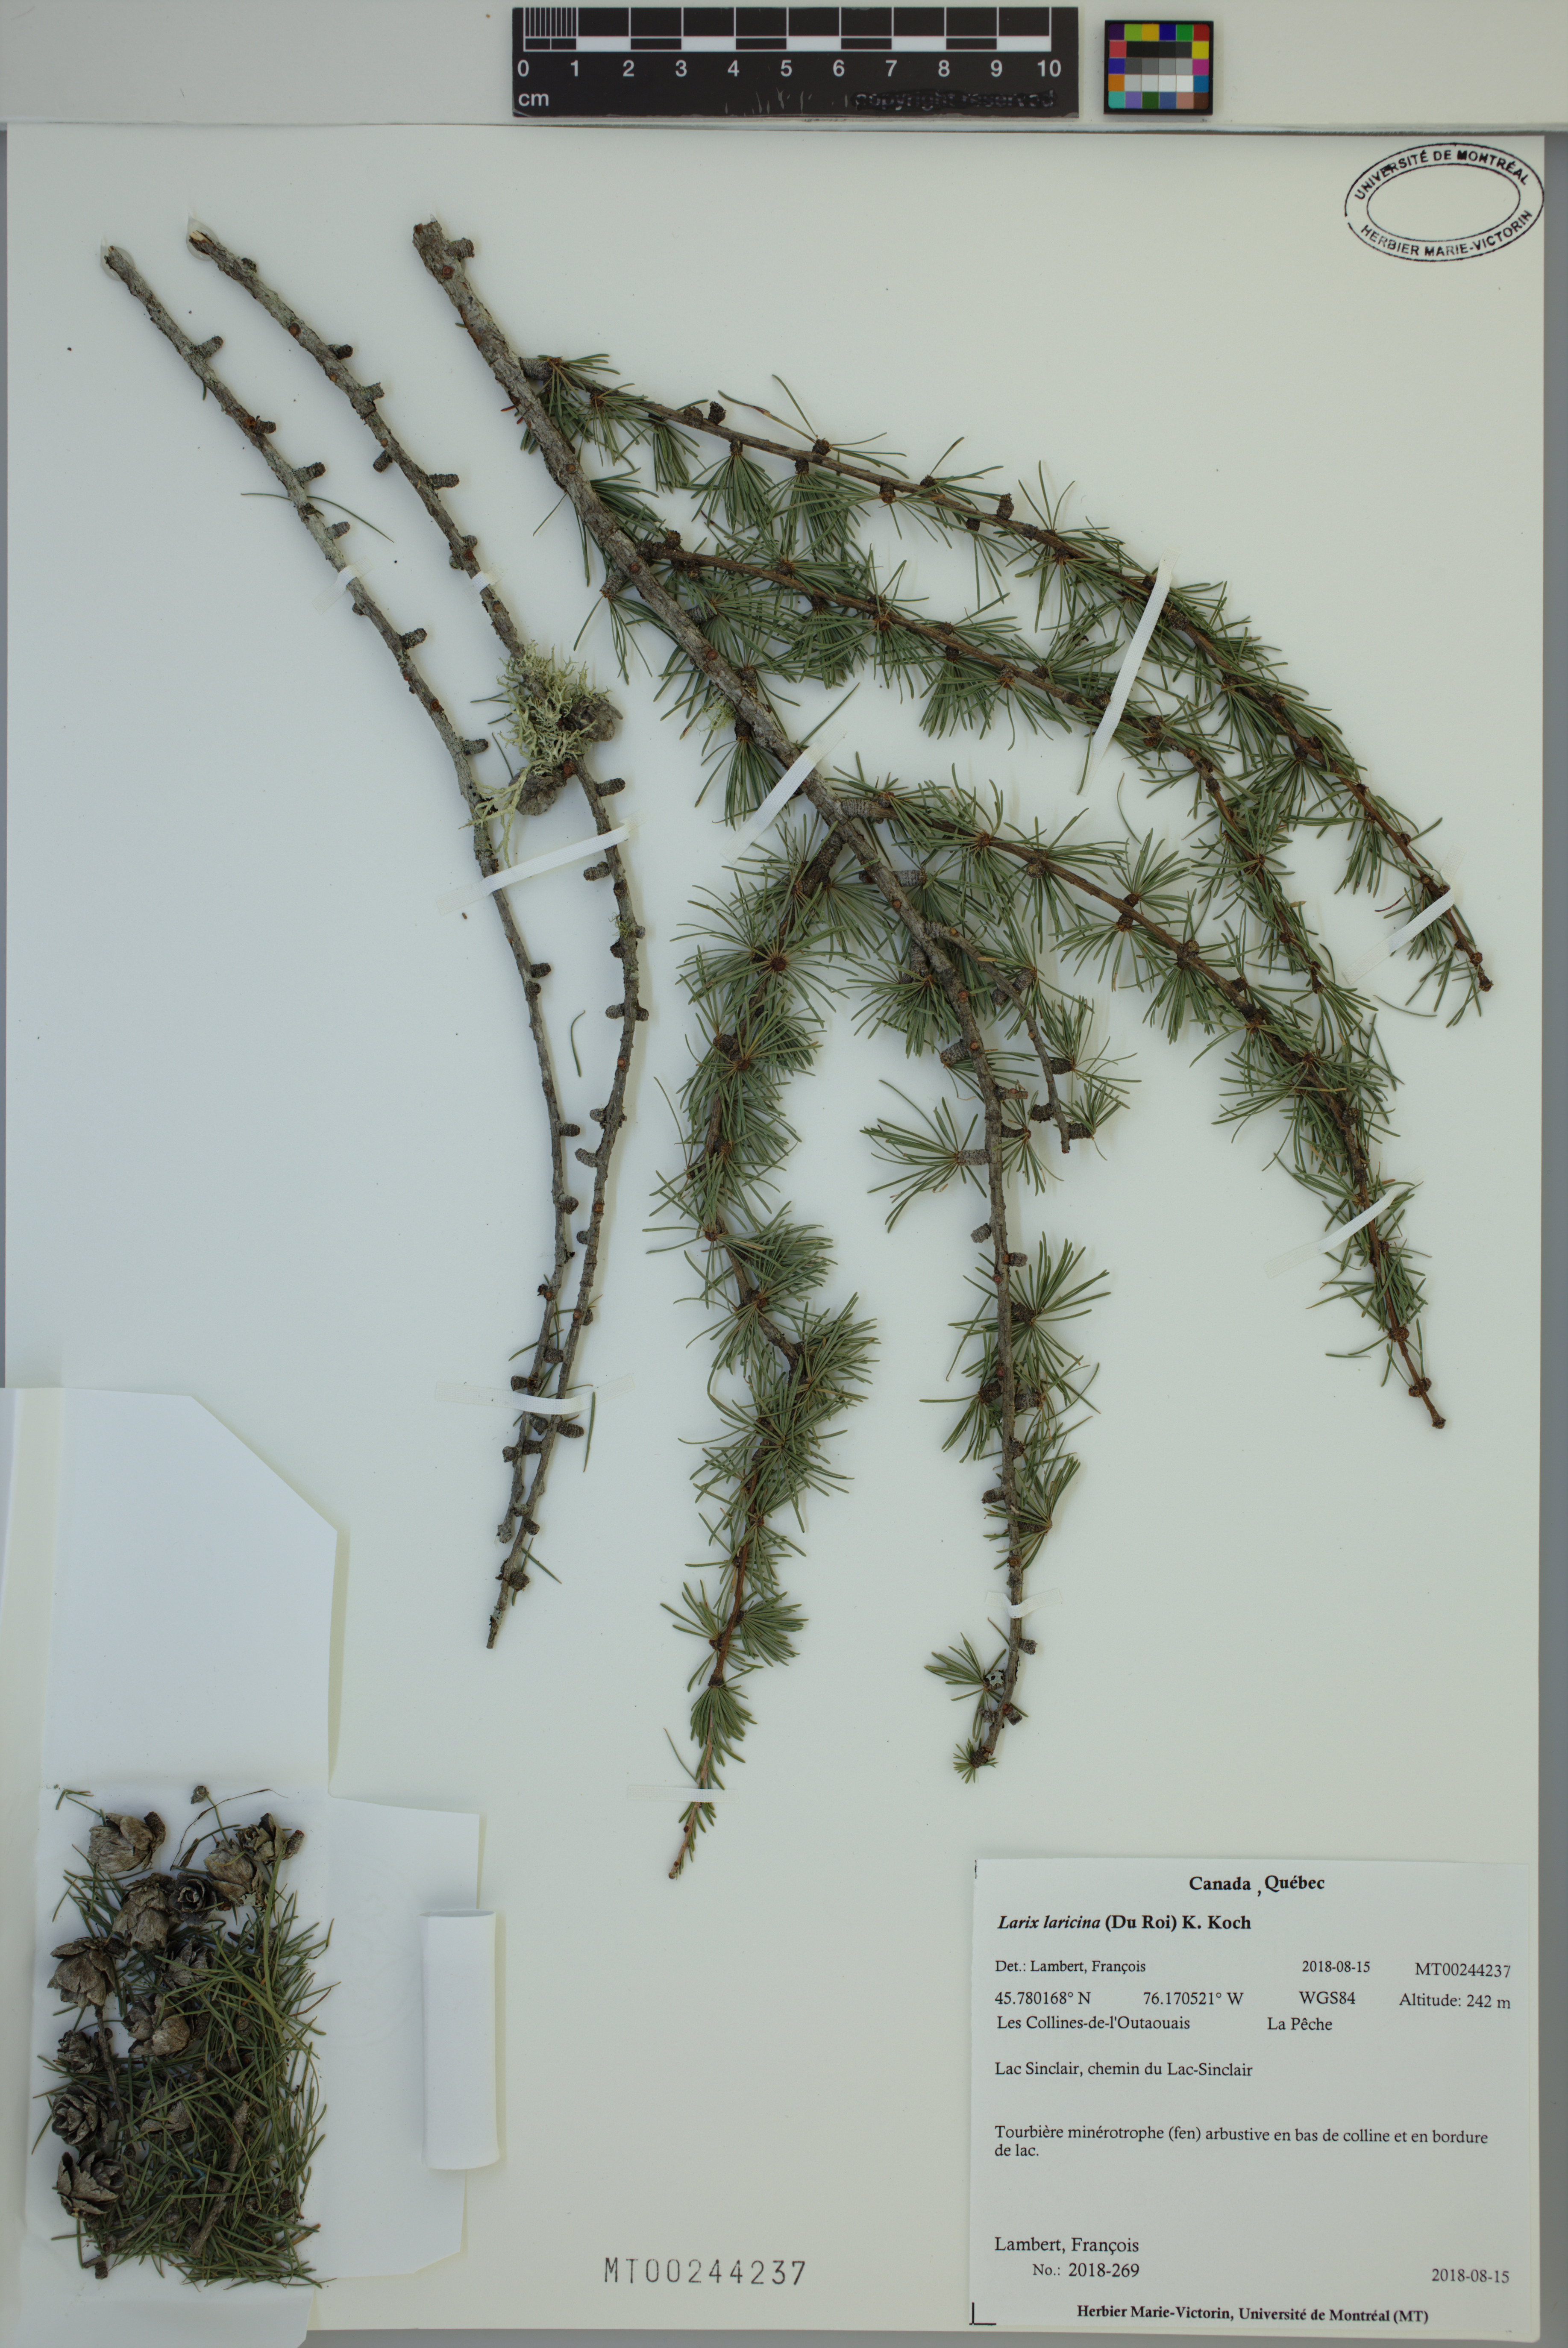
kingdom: Plantae
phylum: Tracheophyta
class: Pinopsida
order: Pinales
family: Pinaceae
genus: Larix
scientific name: Larix laricina
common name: American larch
